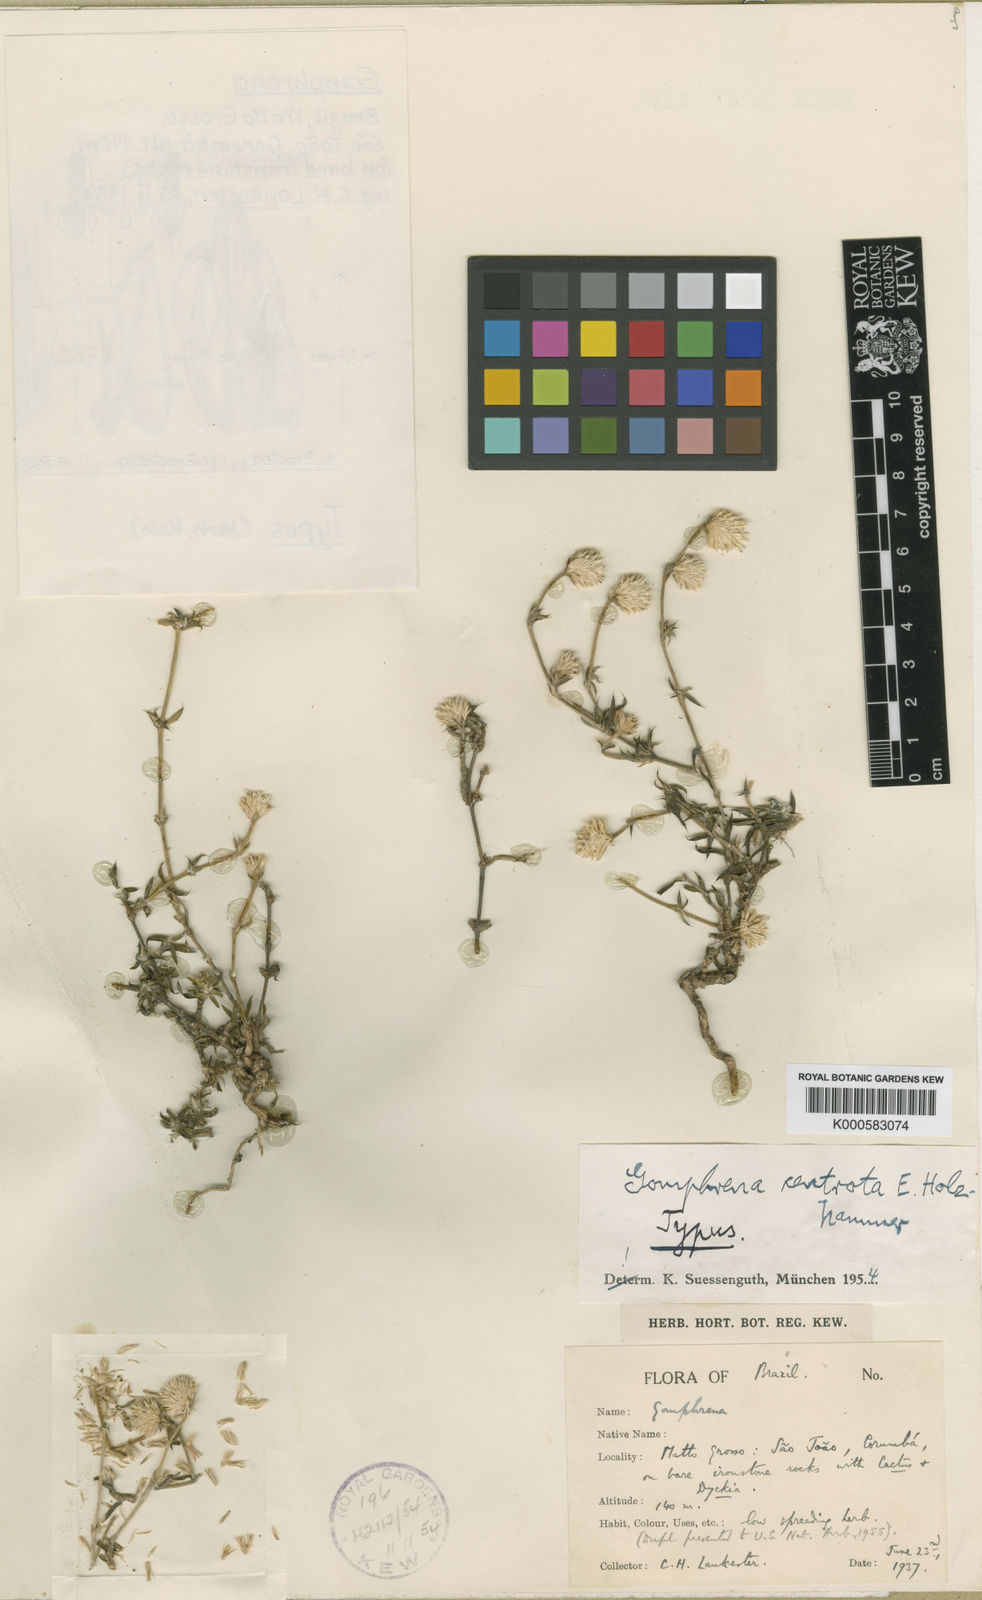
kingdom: Plantae
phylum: Tracheophyta
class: Magnoliopsida
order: Caryophyllales
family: Amaranthaceae
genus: Gomphrena
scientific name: Gomphrena centrota
